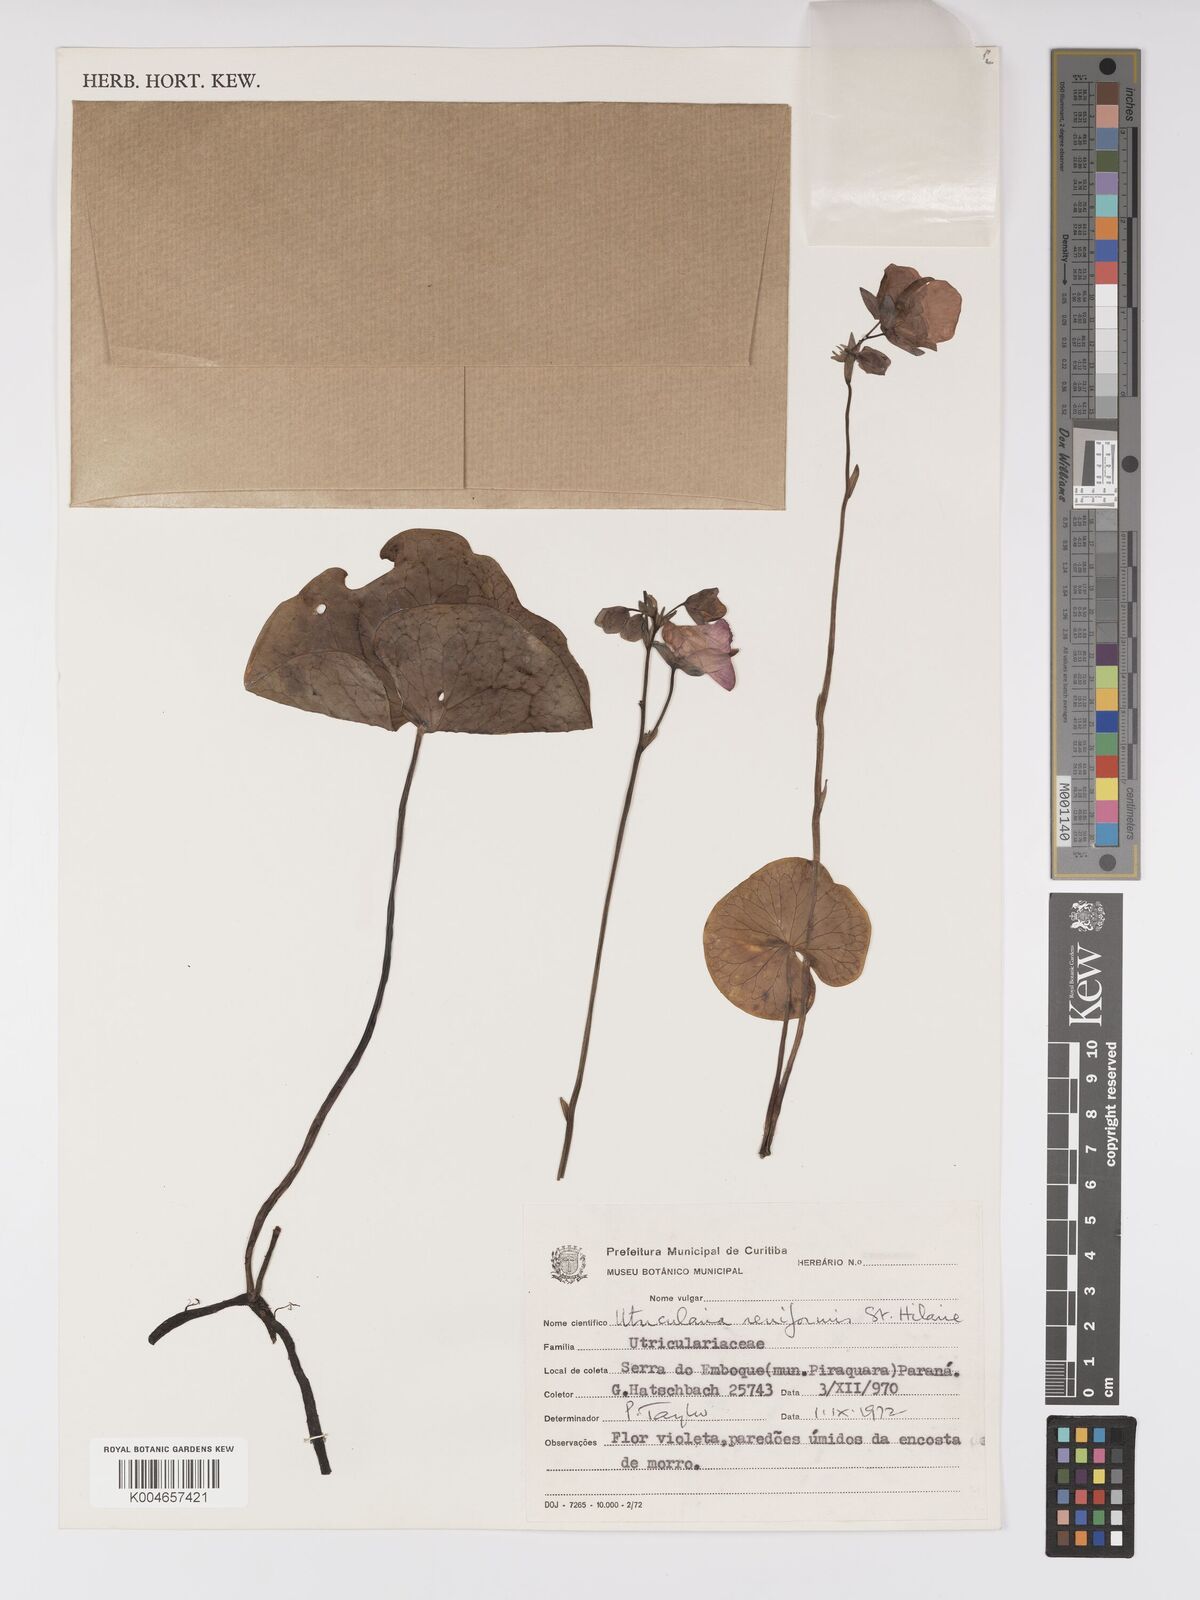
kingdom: Plantae
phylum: Tracheophyta
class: Magnoliopsida
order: Lamiales
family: Lentibulariaceae
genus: Utricularia
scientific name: Utricularia reniformis
